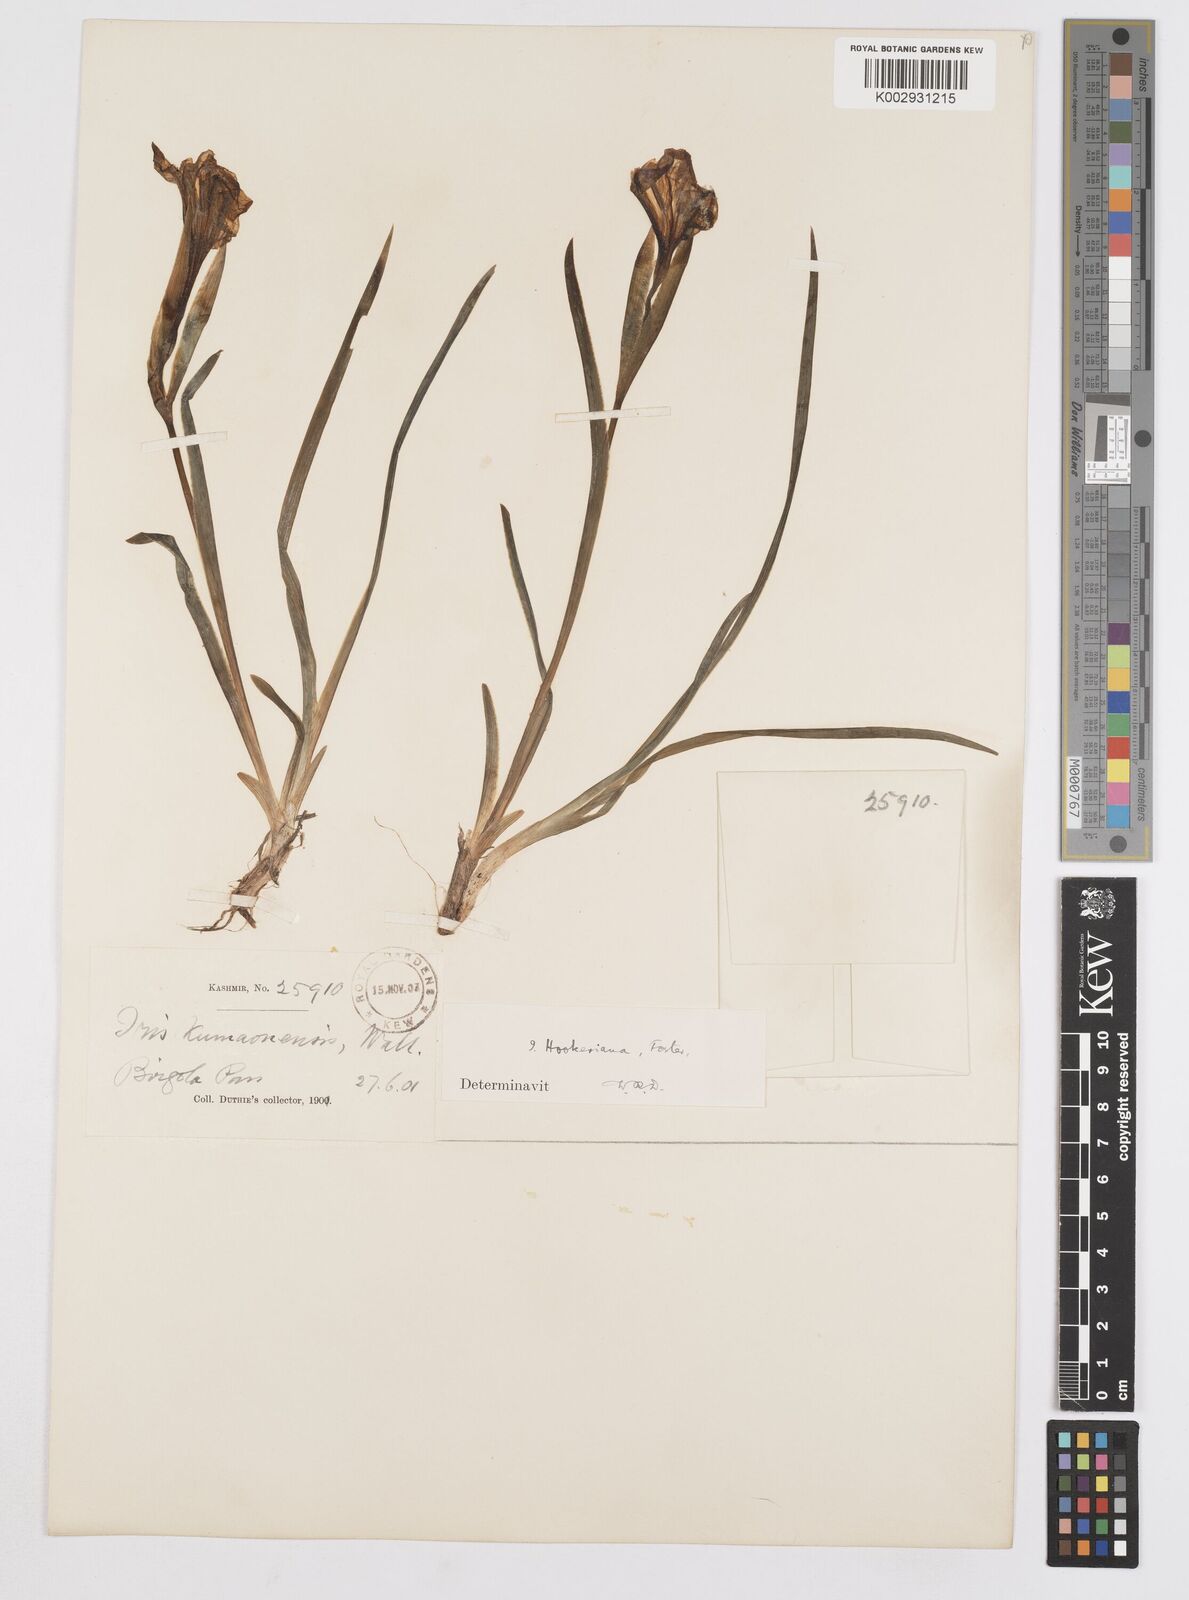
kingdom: Plantae
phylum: Tracheophyta
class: Liliopsida
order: Asparagales
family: Iridaceae
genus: Iris
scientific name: Iris hookeriana
